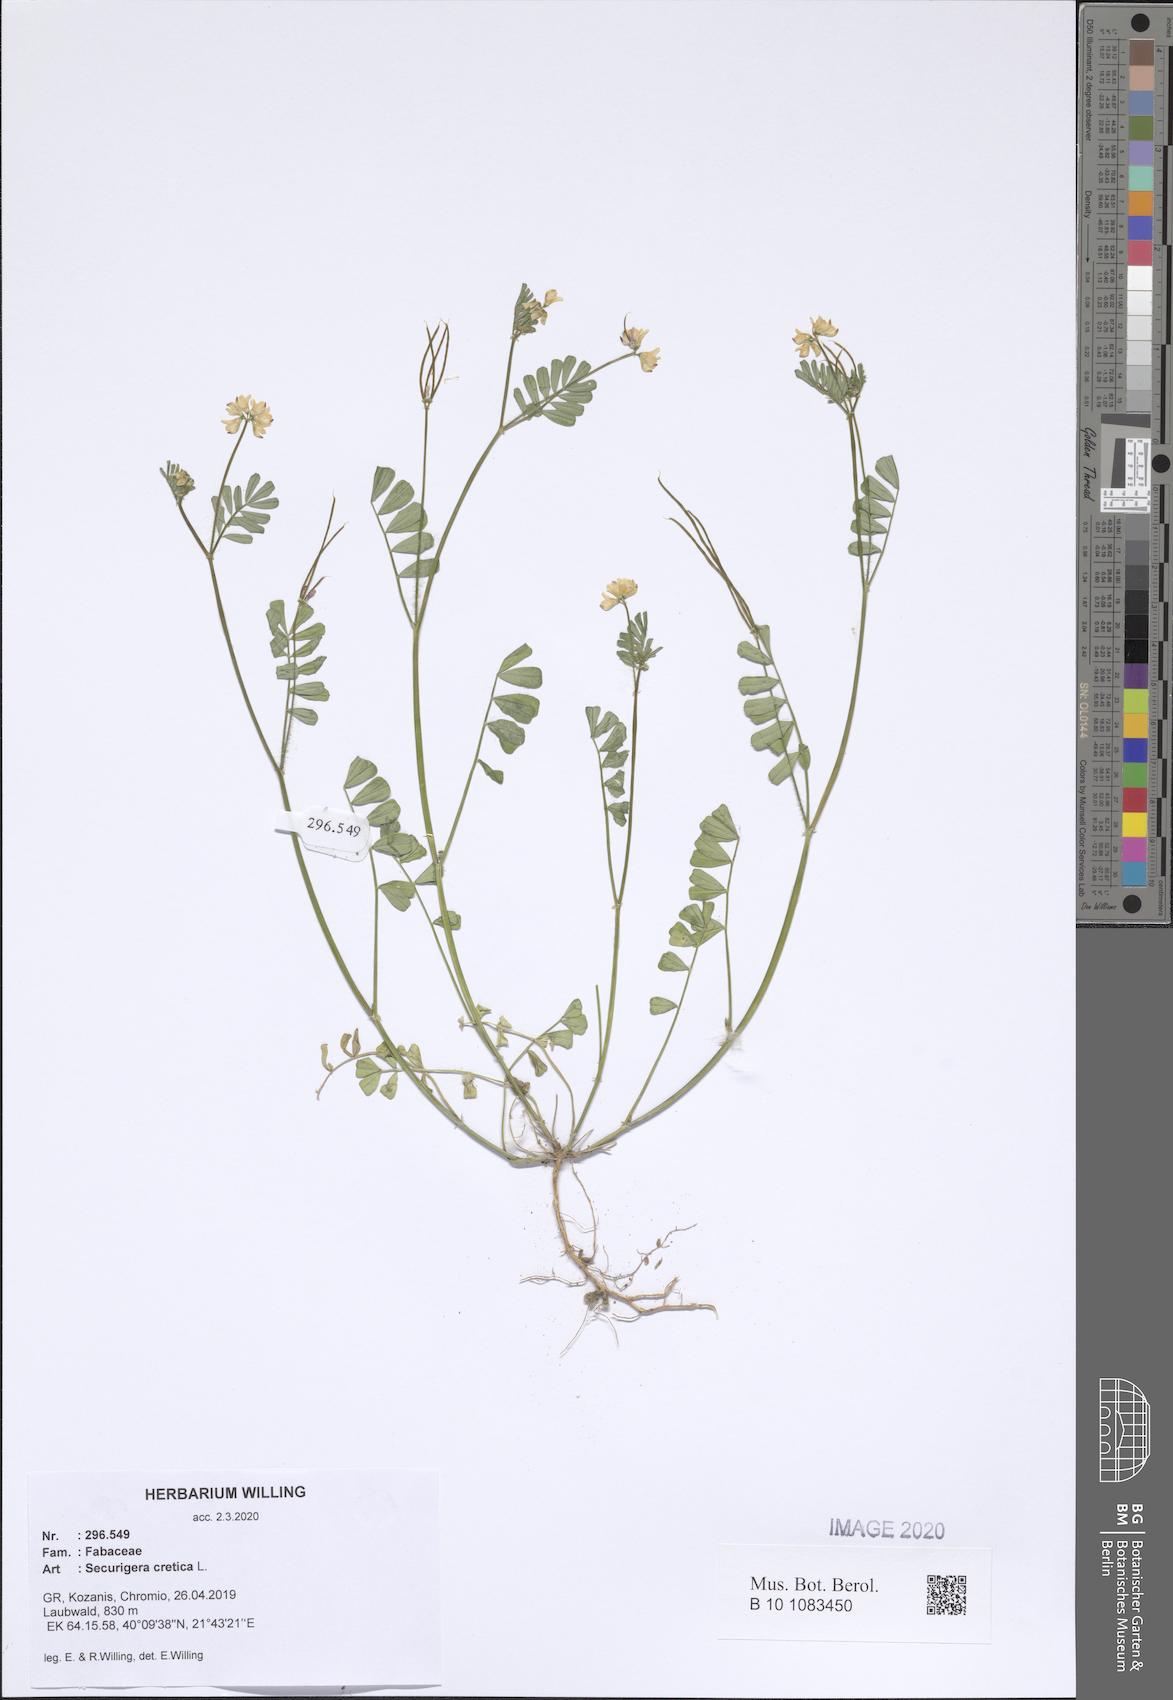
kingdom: Plantae
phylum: Tracheophyta
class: Magnoliopsida
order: Fabales
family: Fabaceae
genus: Coronilla
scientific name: Coronilla cretica
